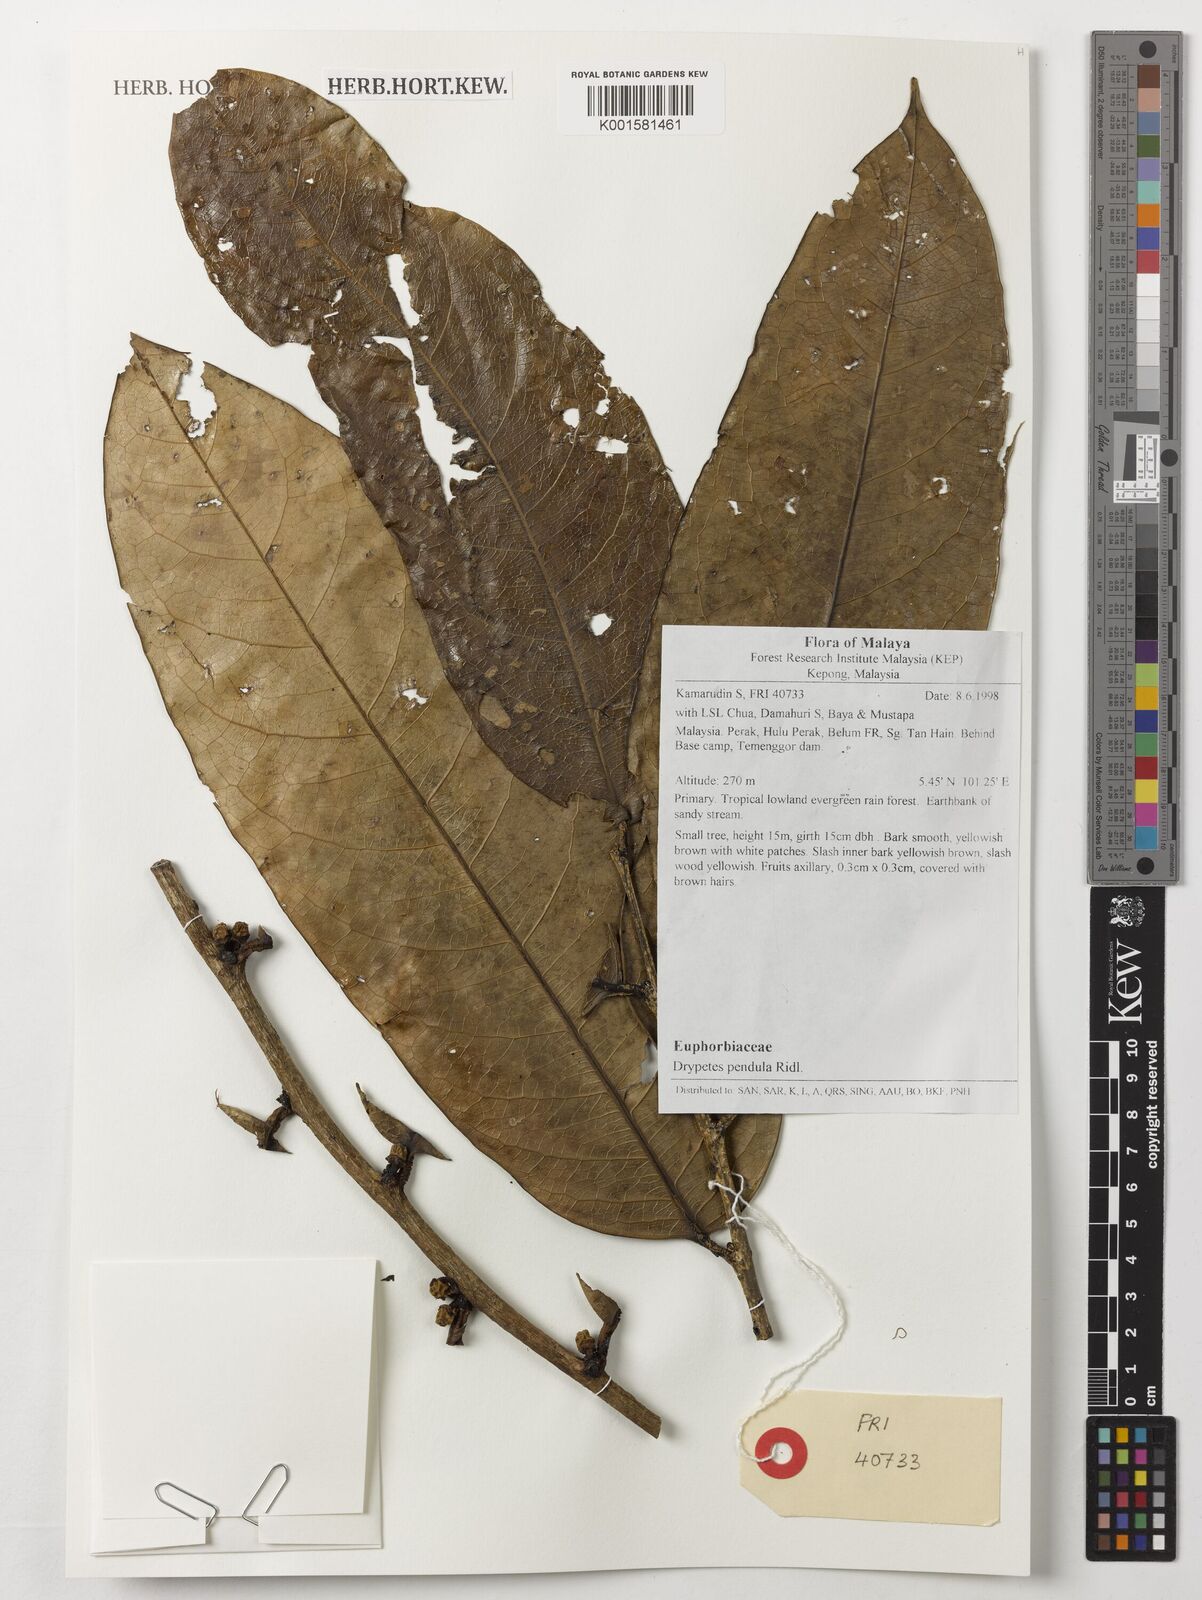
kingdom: Plantae
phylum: Tracheophyta
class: Magnoliopsida
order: Malpighiales
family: Putranjivaceae
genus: Drypetes
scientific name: Drypetes pendula
